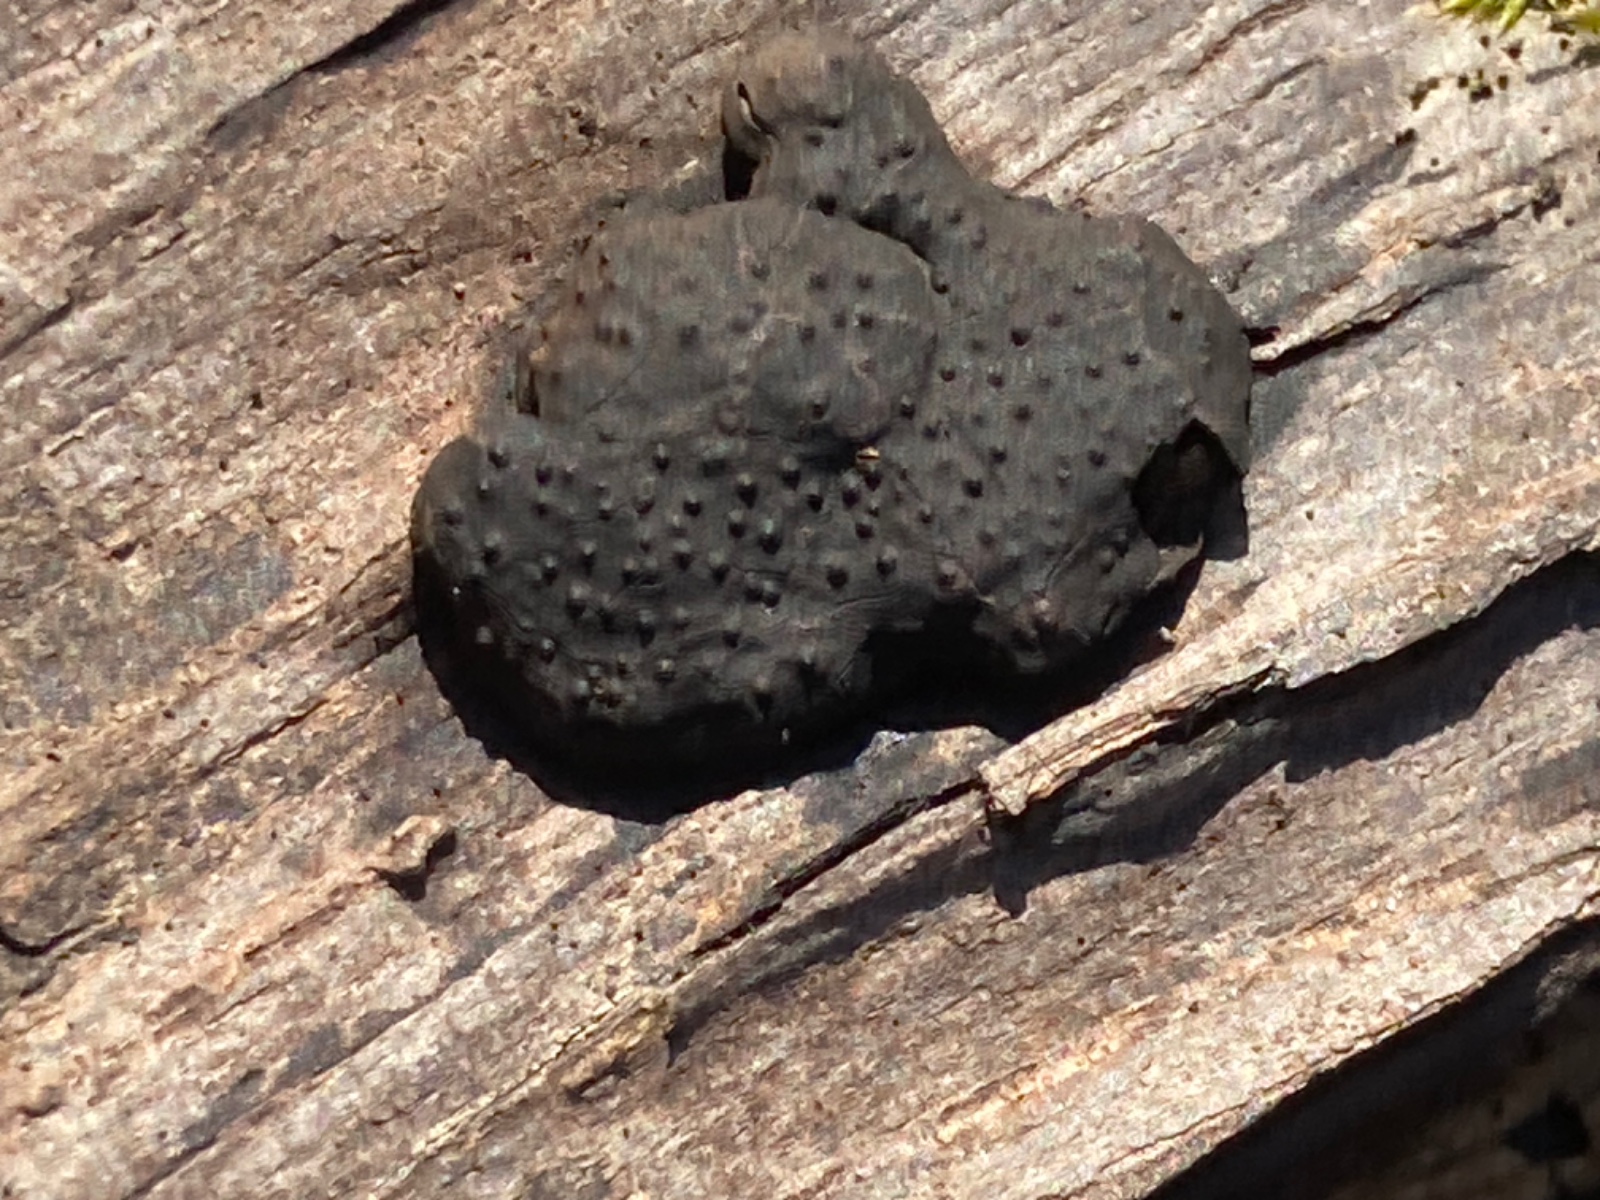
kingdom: Fungi
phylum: Ascomycota
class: Sordariomycetes
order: Xylariales
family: Hypoxylaceae
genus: Jackrogersella
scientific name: Jackrogersella
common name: kulbær
